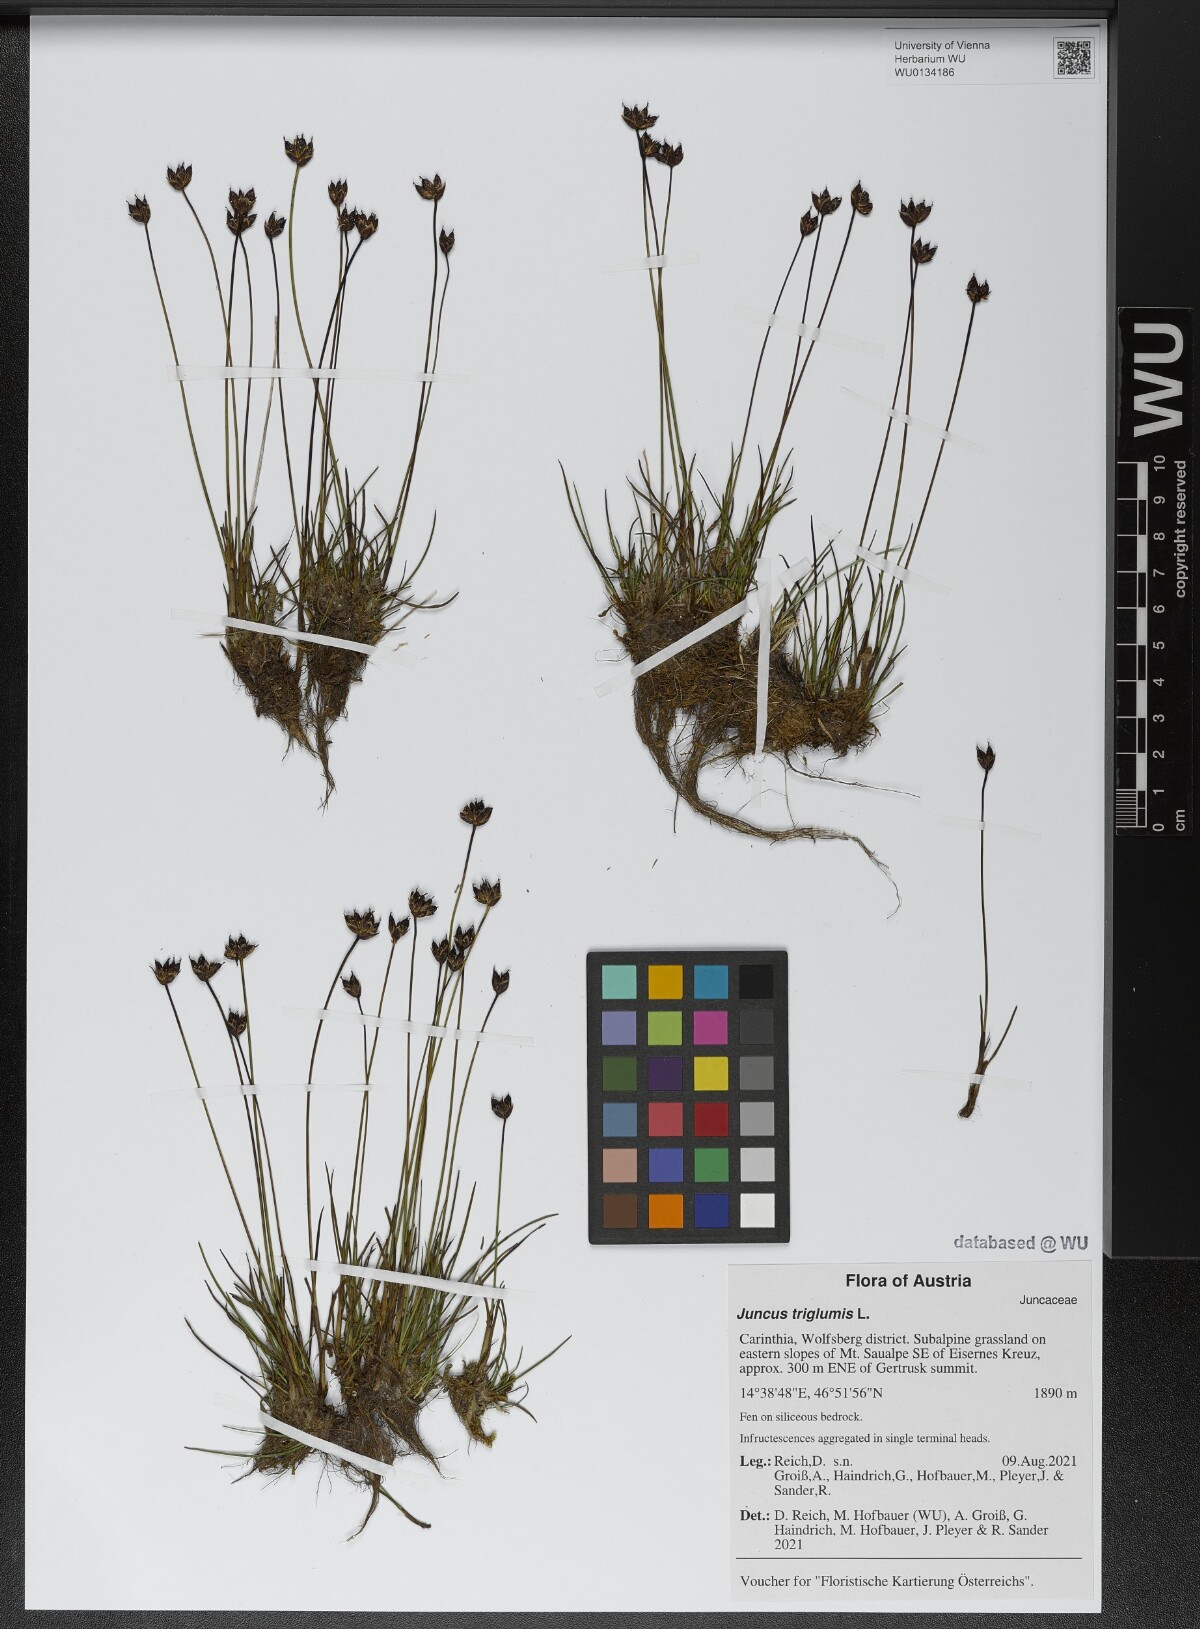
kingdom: Plantae
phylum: Tracheophyta
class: Liliopsida
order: Poales
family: Juncaceae
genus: Juncus
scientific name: Juncus triglumis
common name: Three-flowered rush
